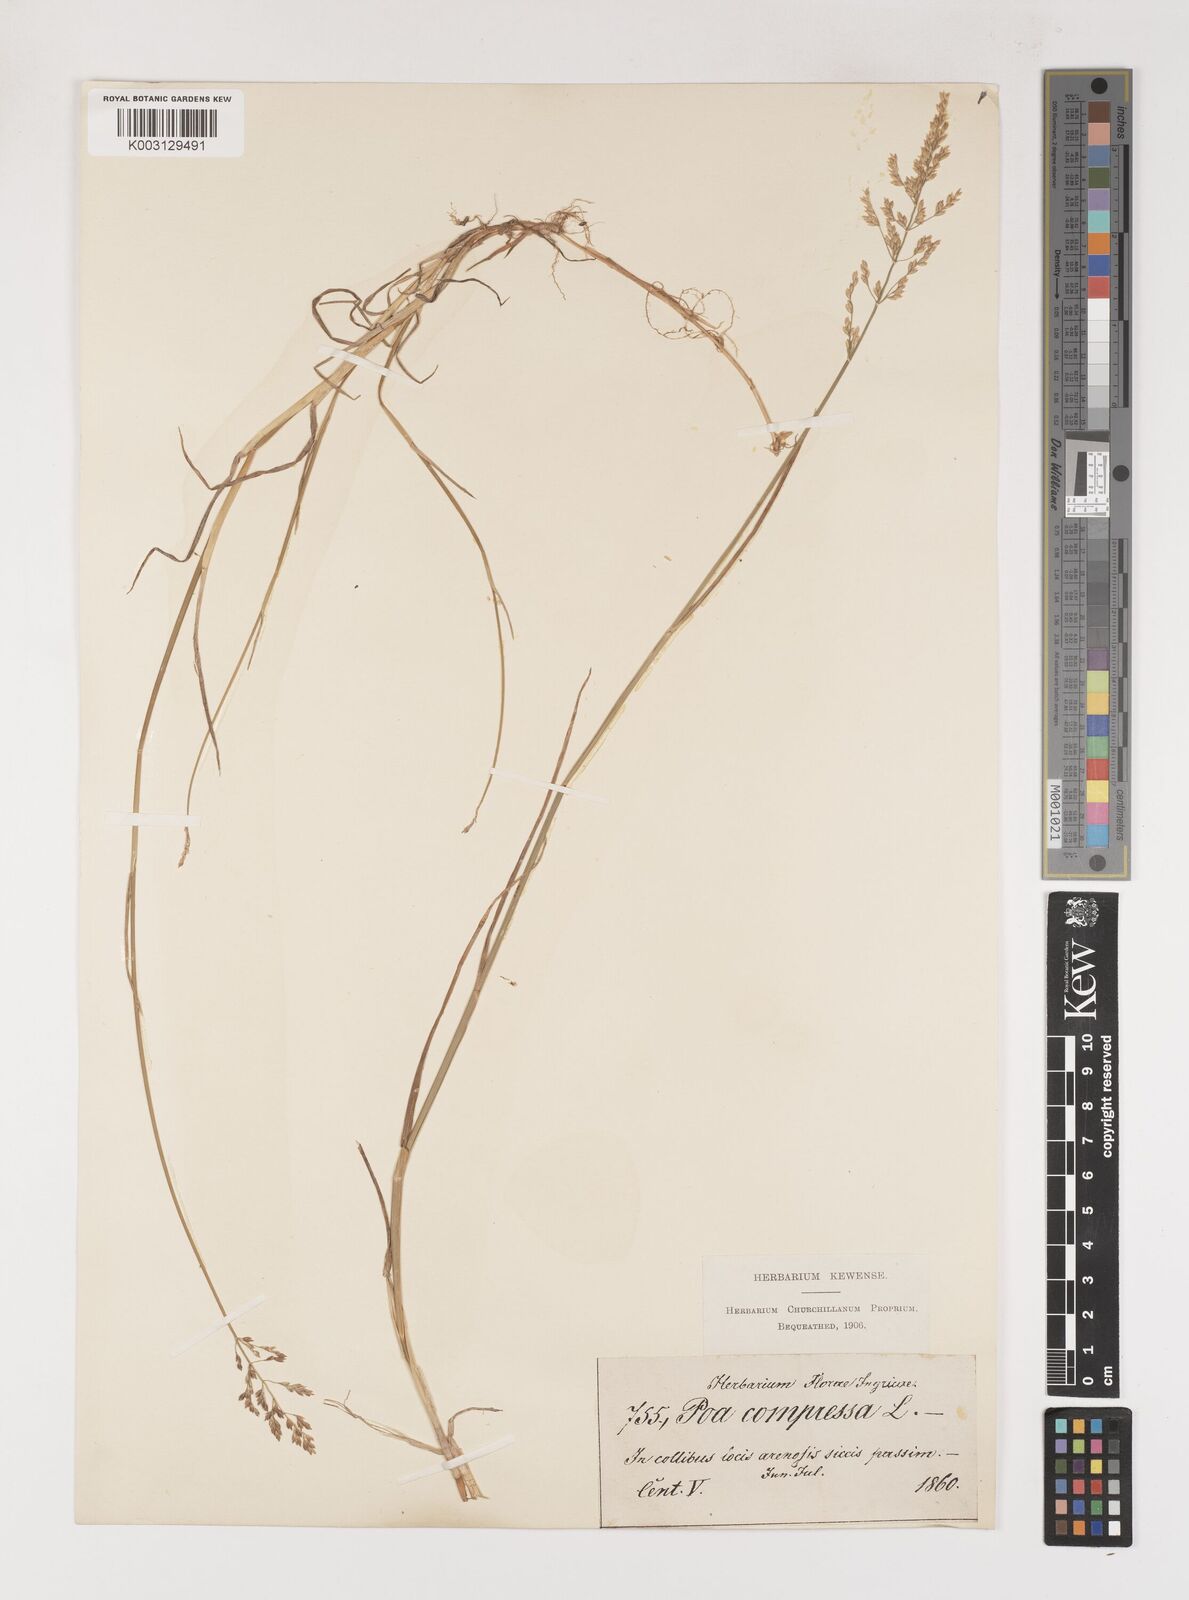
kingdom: Plantae
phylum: Tracheophyta
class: Liliopsida
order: Poales
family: Poaceae
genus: Poa
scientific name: Poa compressa
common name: Canada bluegrass
